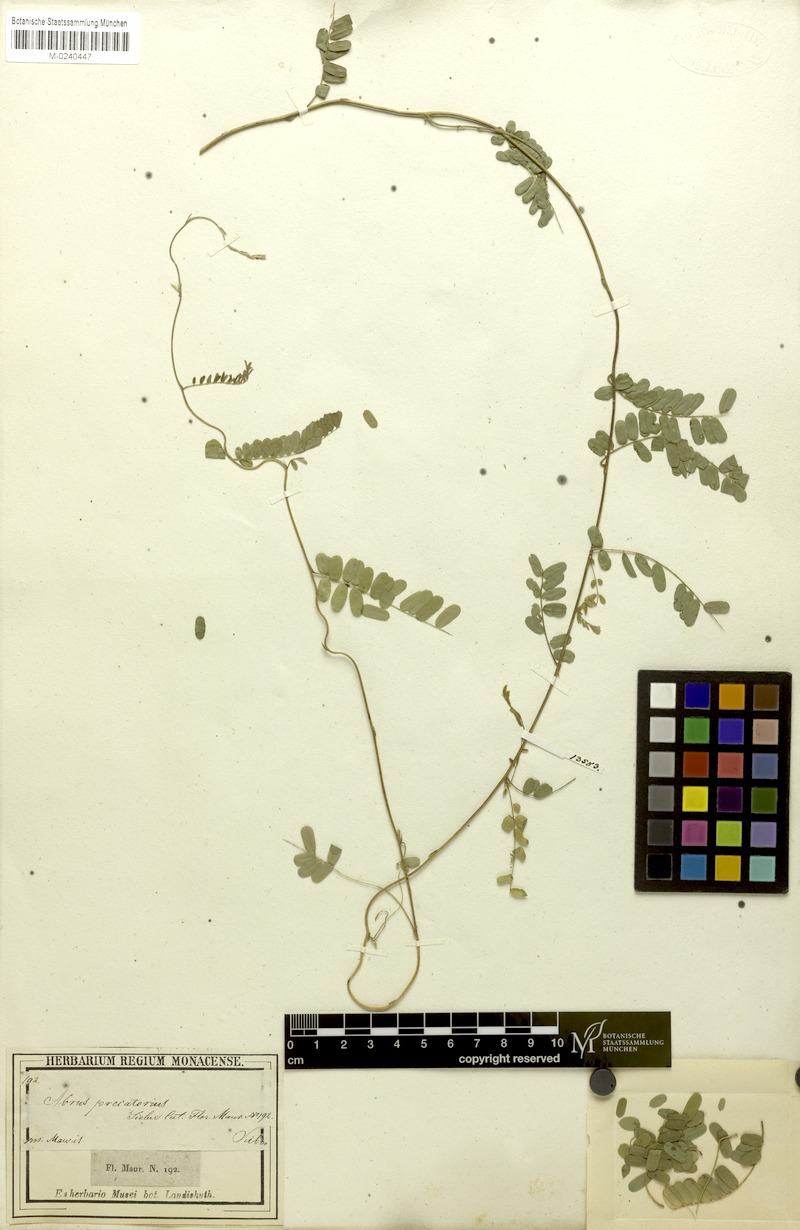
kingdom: Plantae
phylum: Tracheophyta
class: Magnoliopsida
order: Fabales
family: Fabaceae
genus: Abrus
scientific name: Abrus precatorius
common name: Rosarypea
